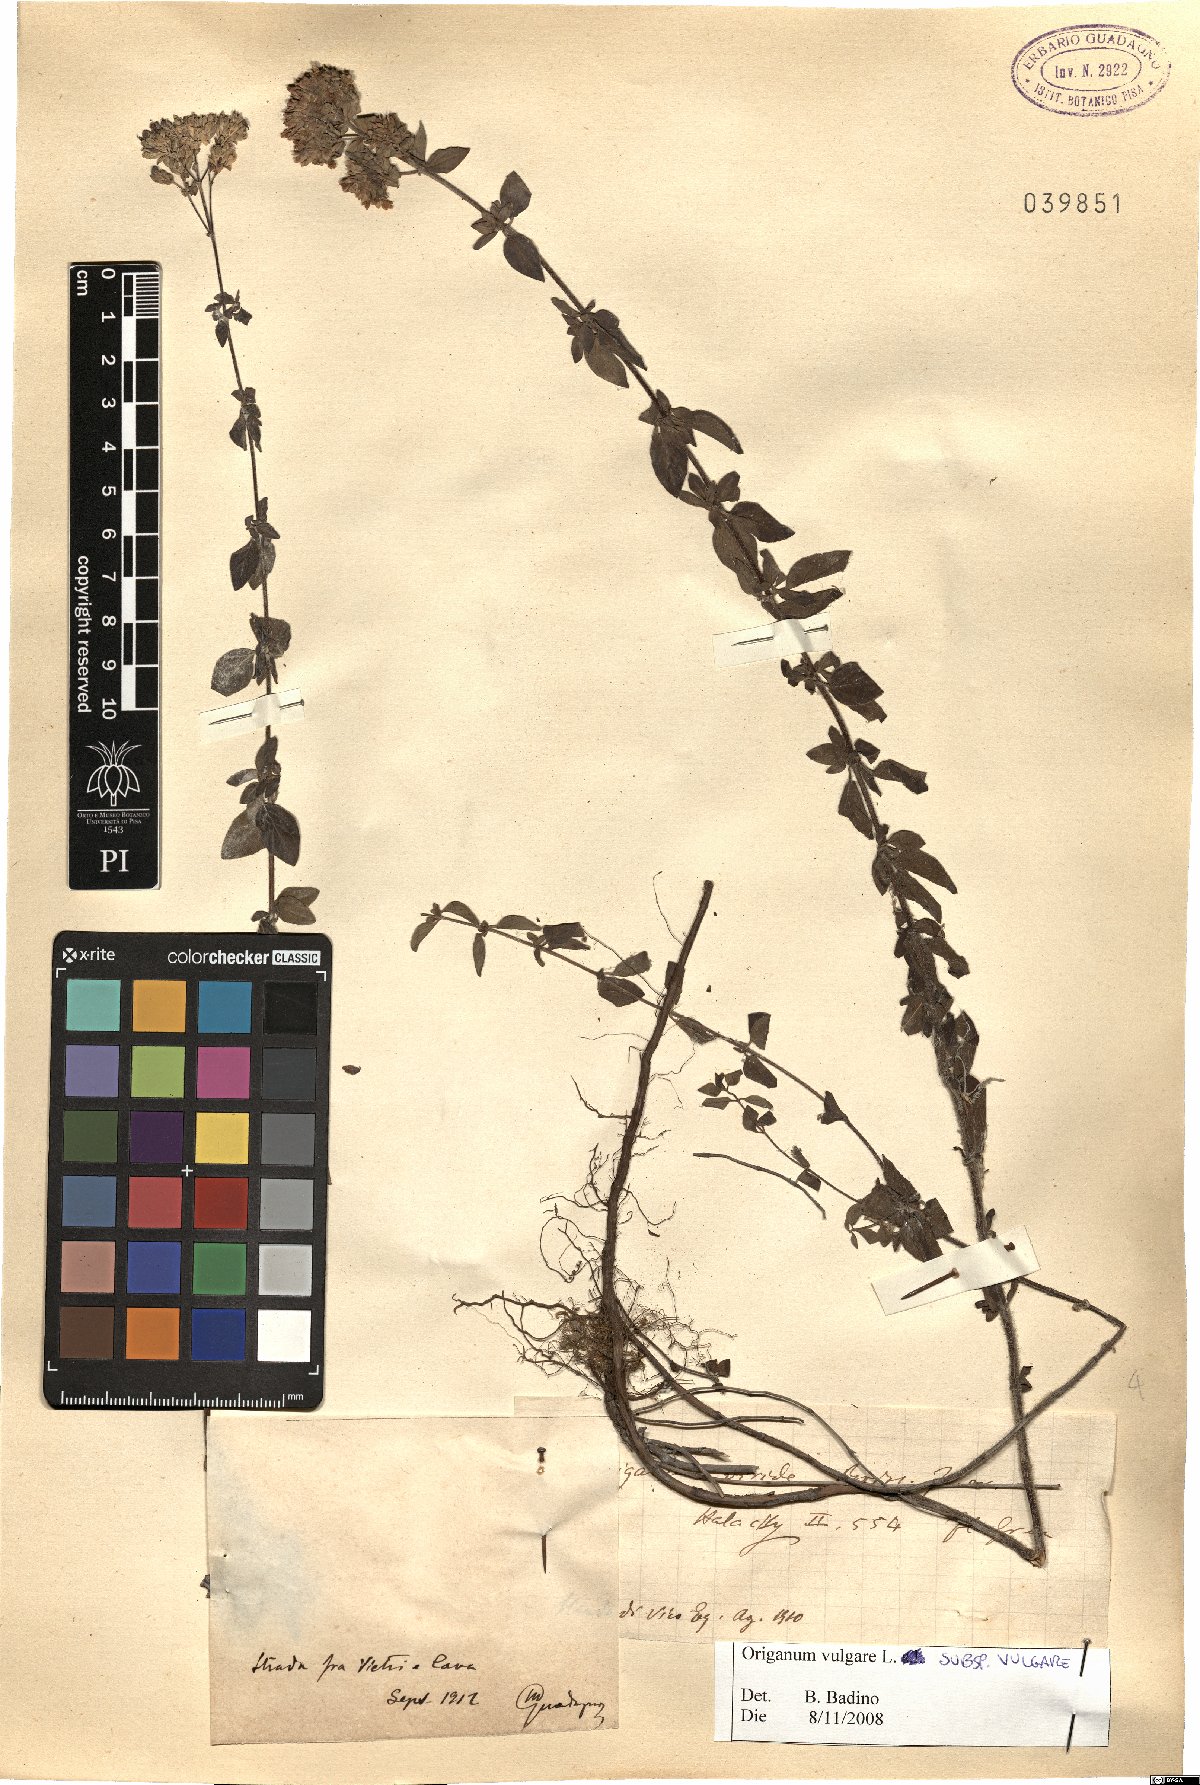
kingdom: Plantae
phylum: Tracheophyta
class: Magnoliopsida
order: Lamiales
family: Lamiaceae
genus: Origanum
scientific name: Origanum vulgare
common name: Wild marjoram
